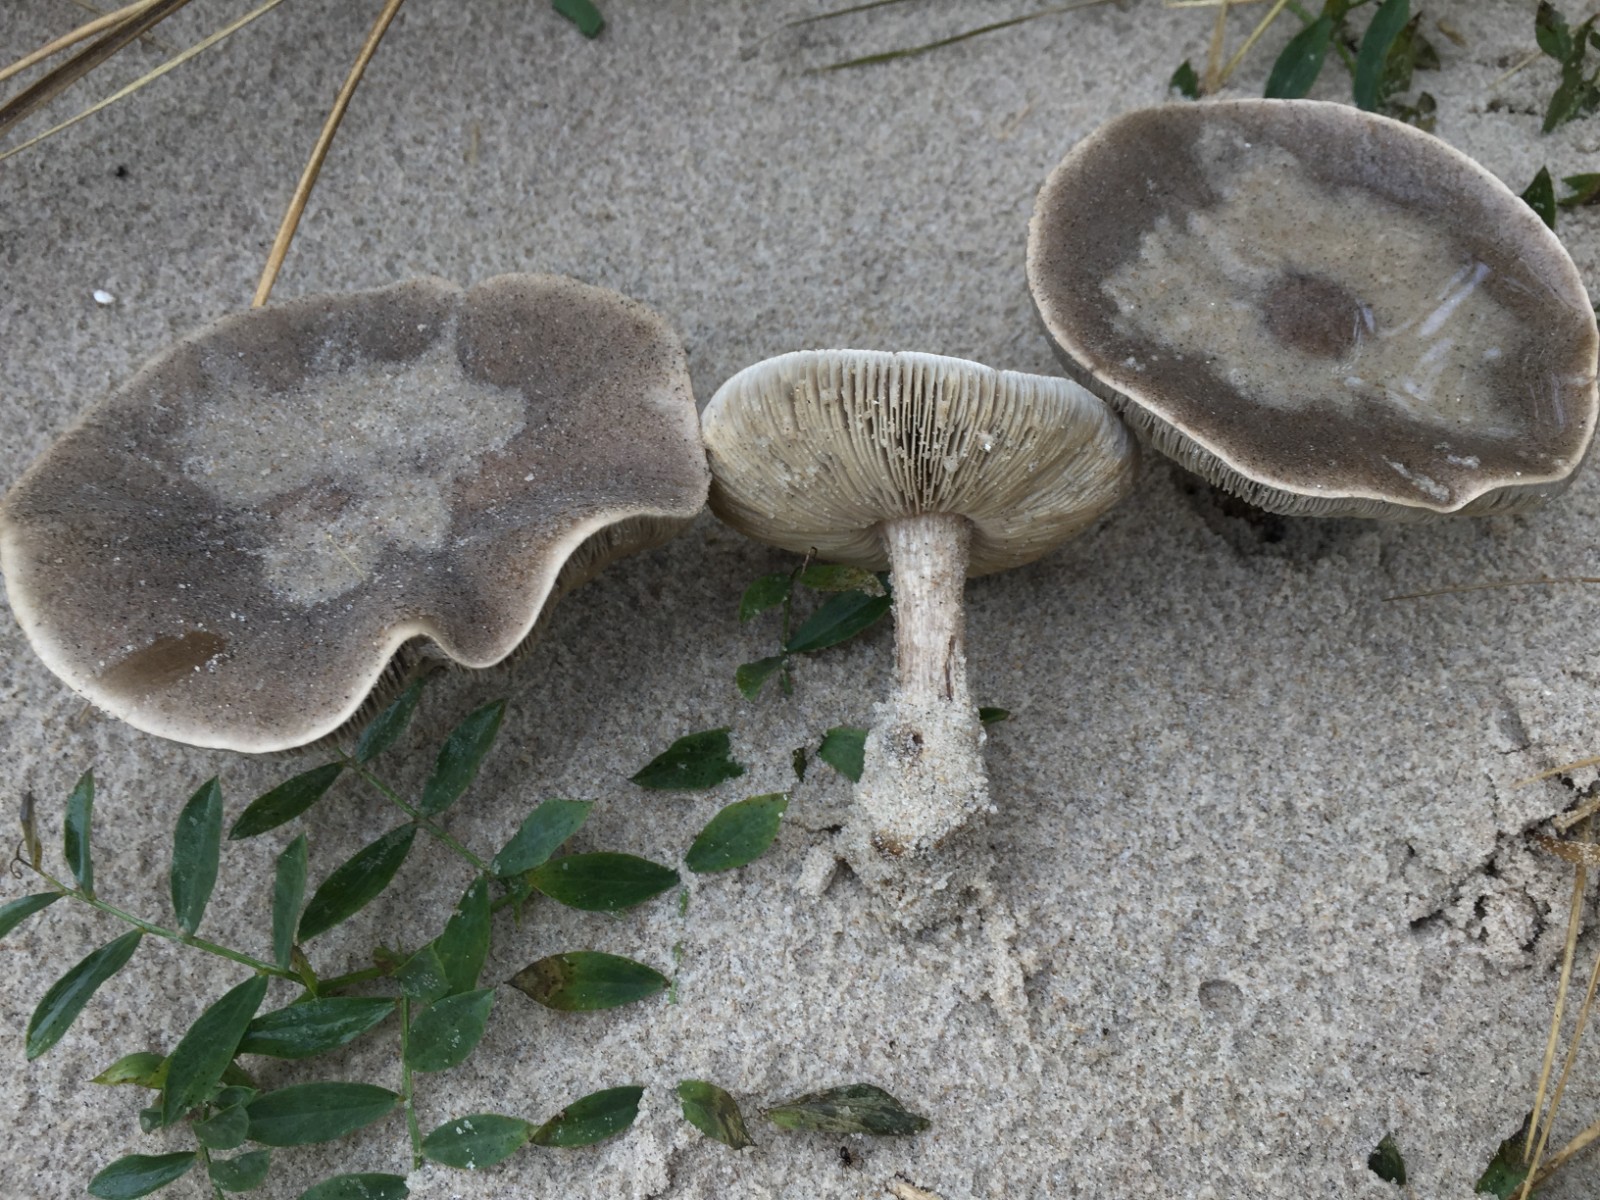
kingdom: Fungi
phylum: Basidiomycota
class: Agaricomycetes
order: Agaricales
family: Tricholomataceae
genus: Melanoleuca
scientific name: Melanoleuca ammophila
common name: gråbladet munkehat
